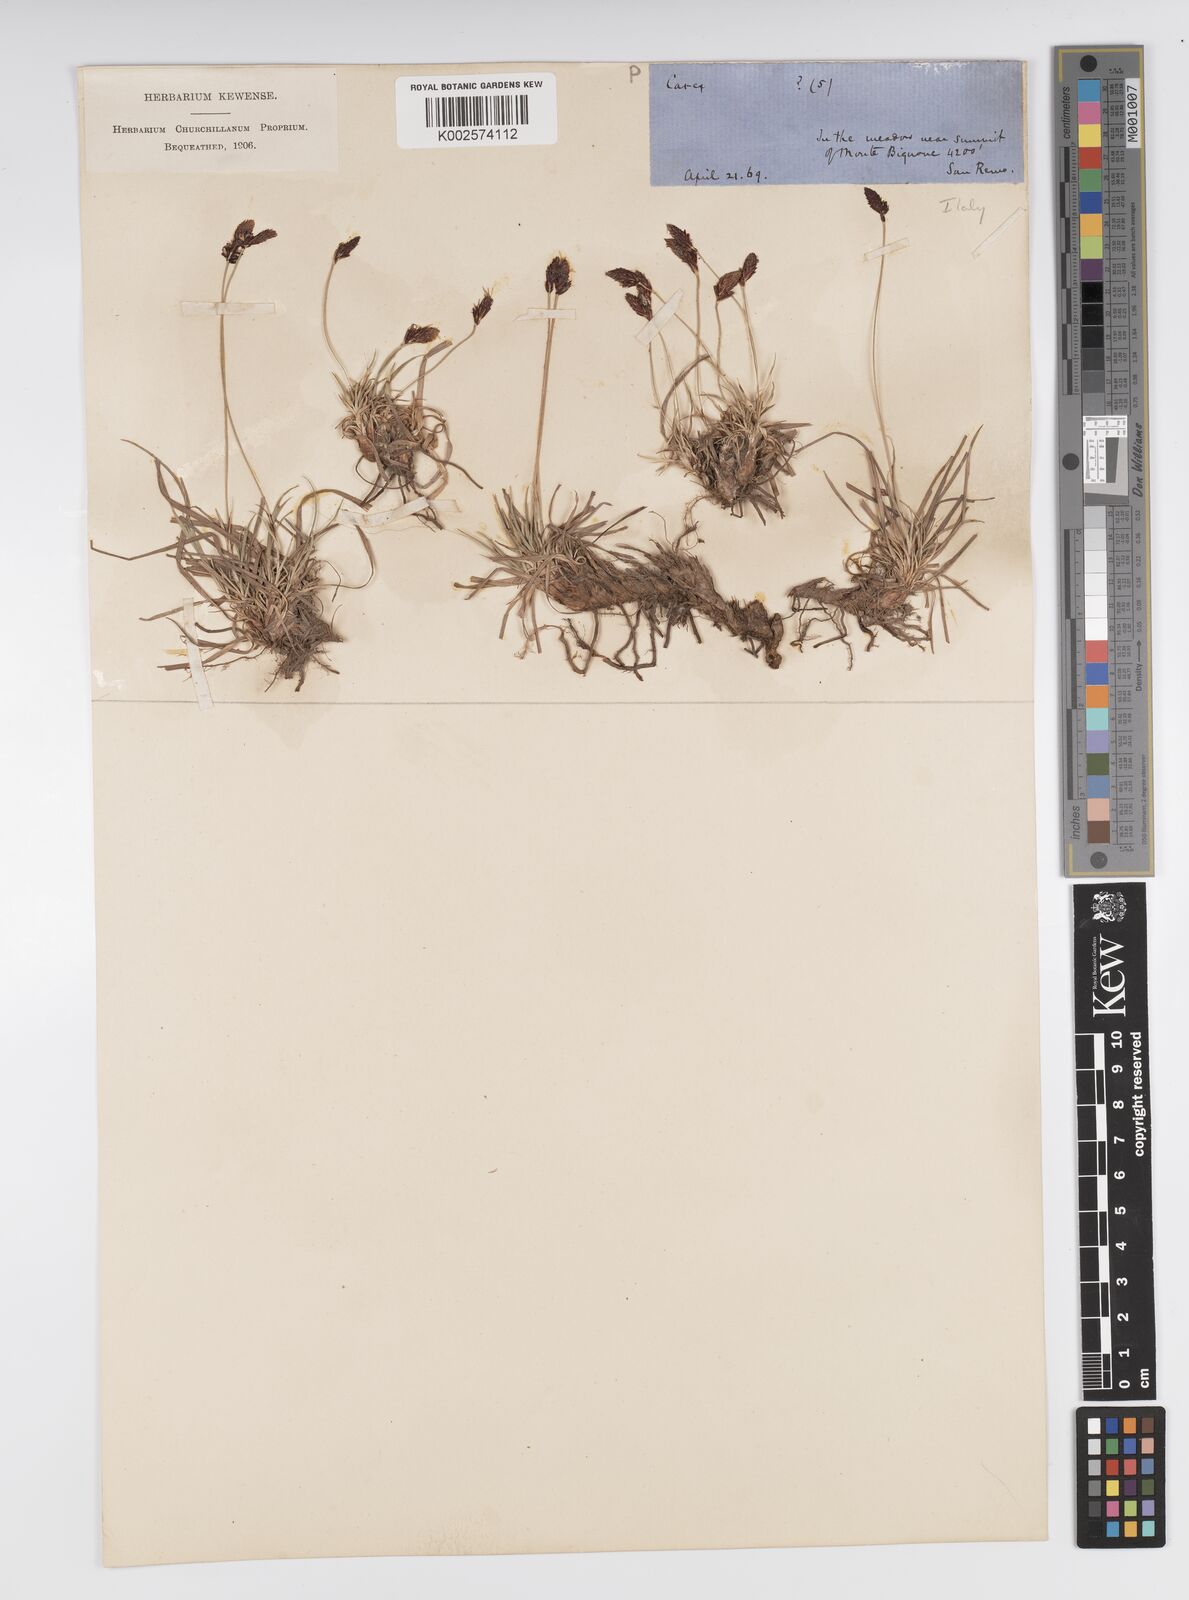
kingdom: Plantae
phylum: Tracheophyta
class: Liliopsida
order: Poales
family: Cyperaceae
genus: Carex
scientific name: Carex atrofusca
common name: Scorched alpine-sedge
